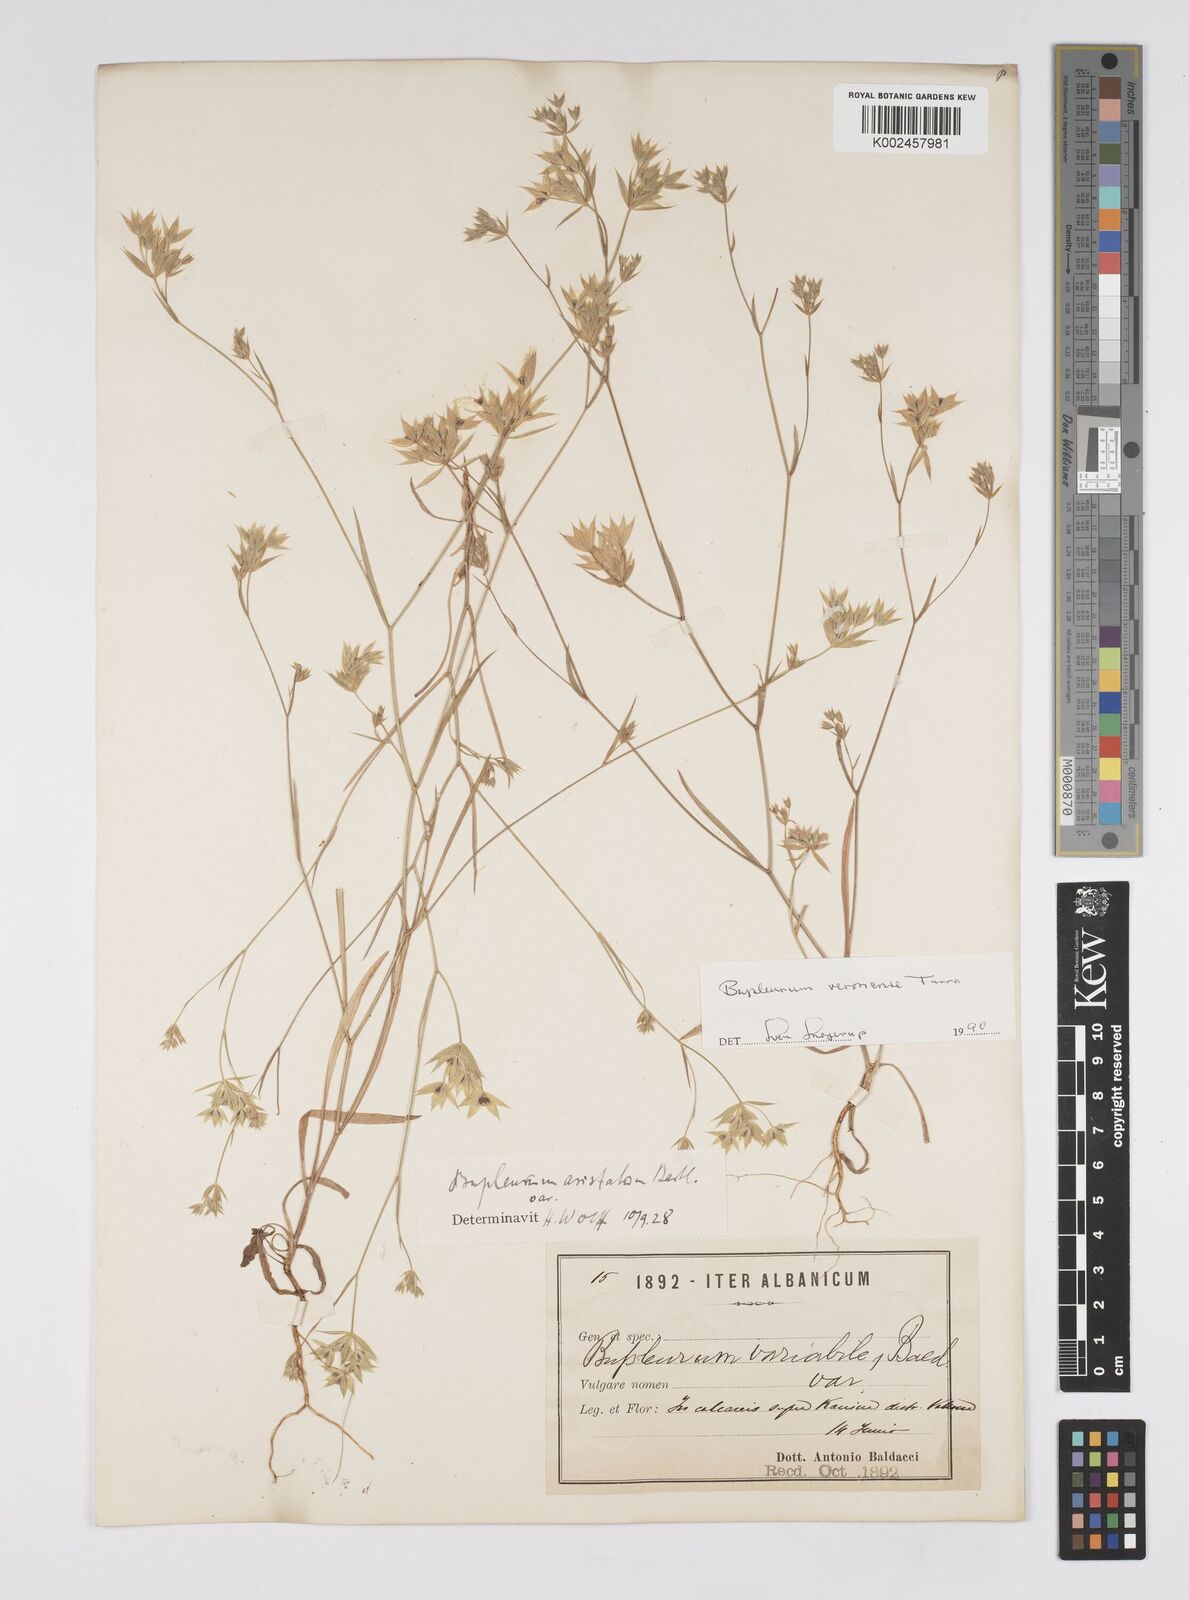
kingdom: Plantae
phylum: Tracheophyta
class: Magnoliopsida
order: Apiales
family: Apiaceae
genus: Bupleurum
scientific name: Bupleurum glumaceum
